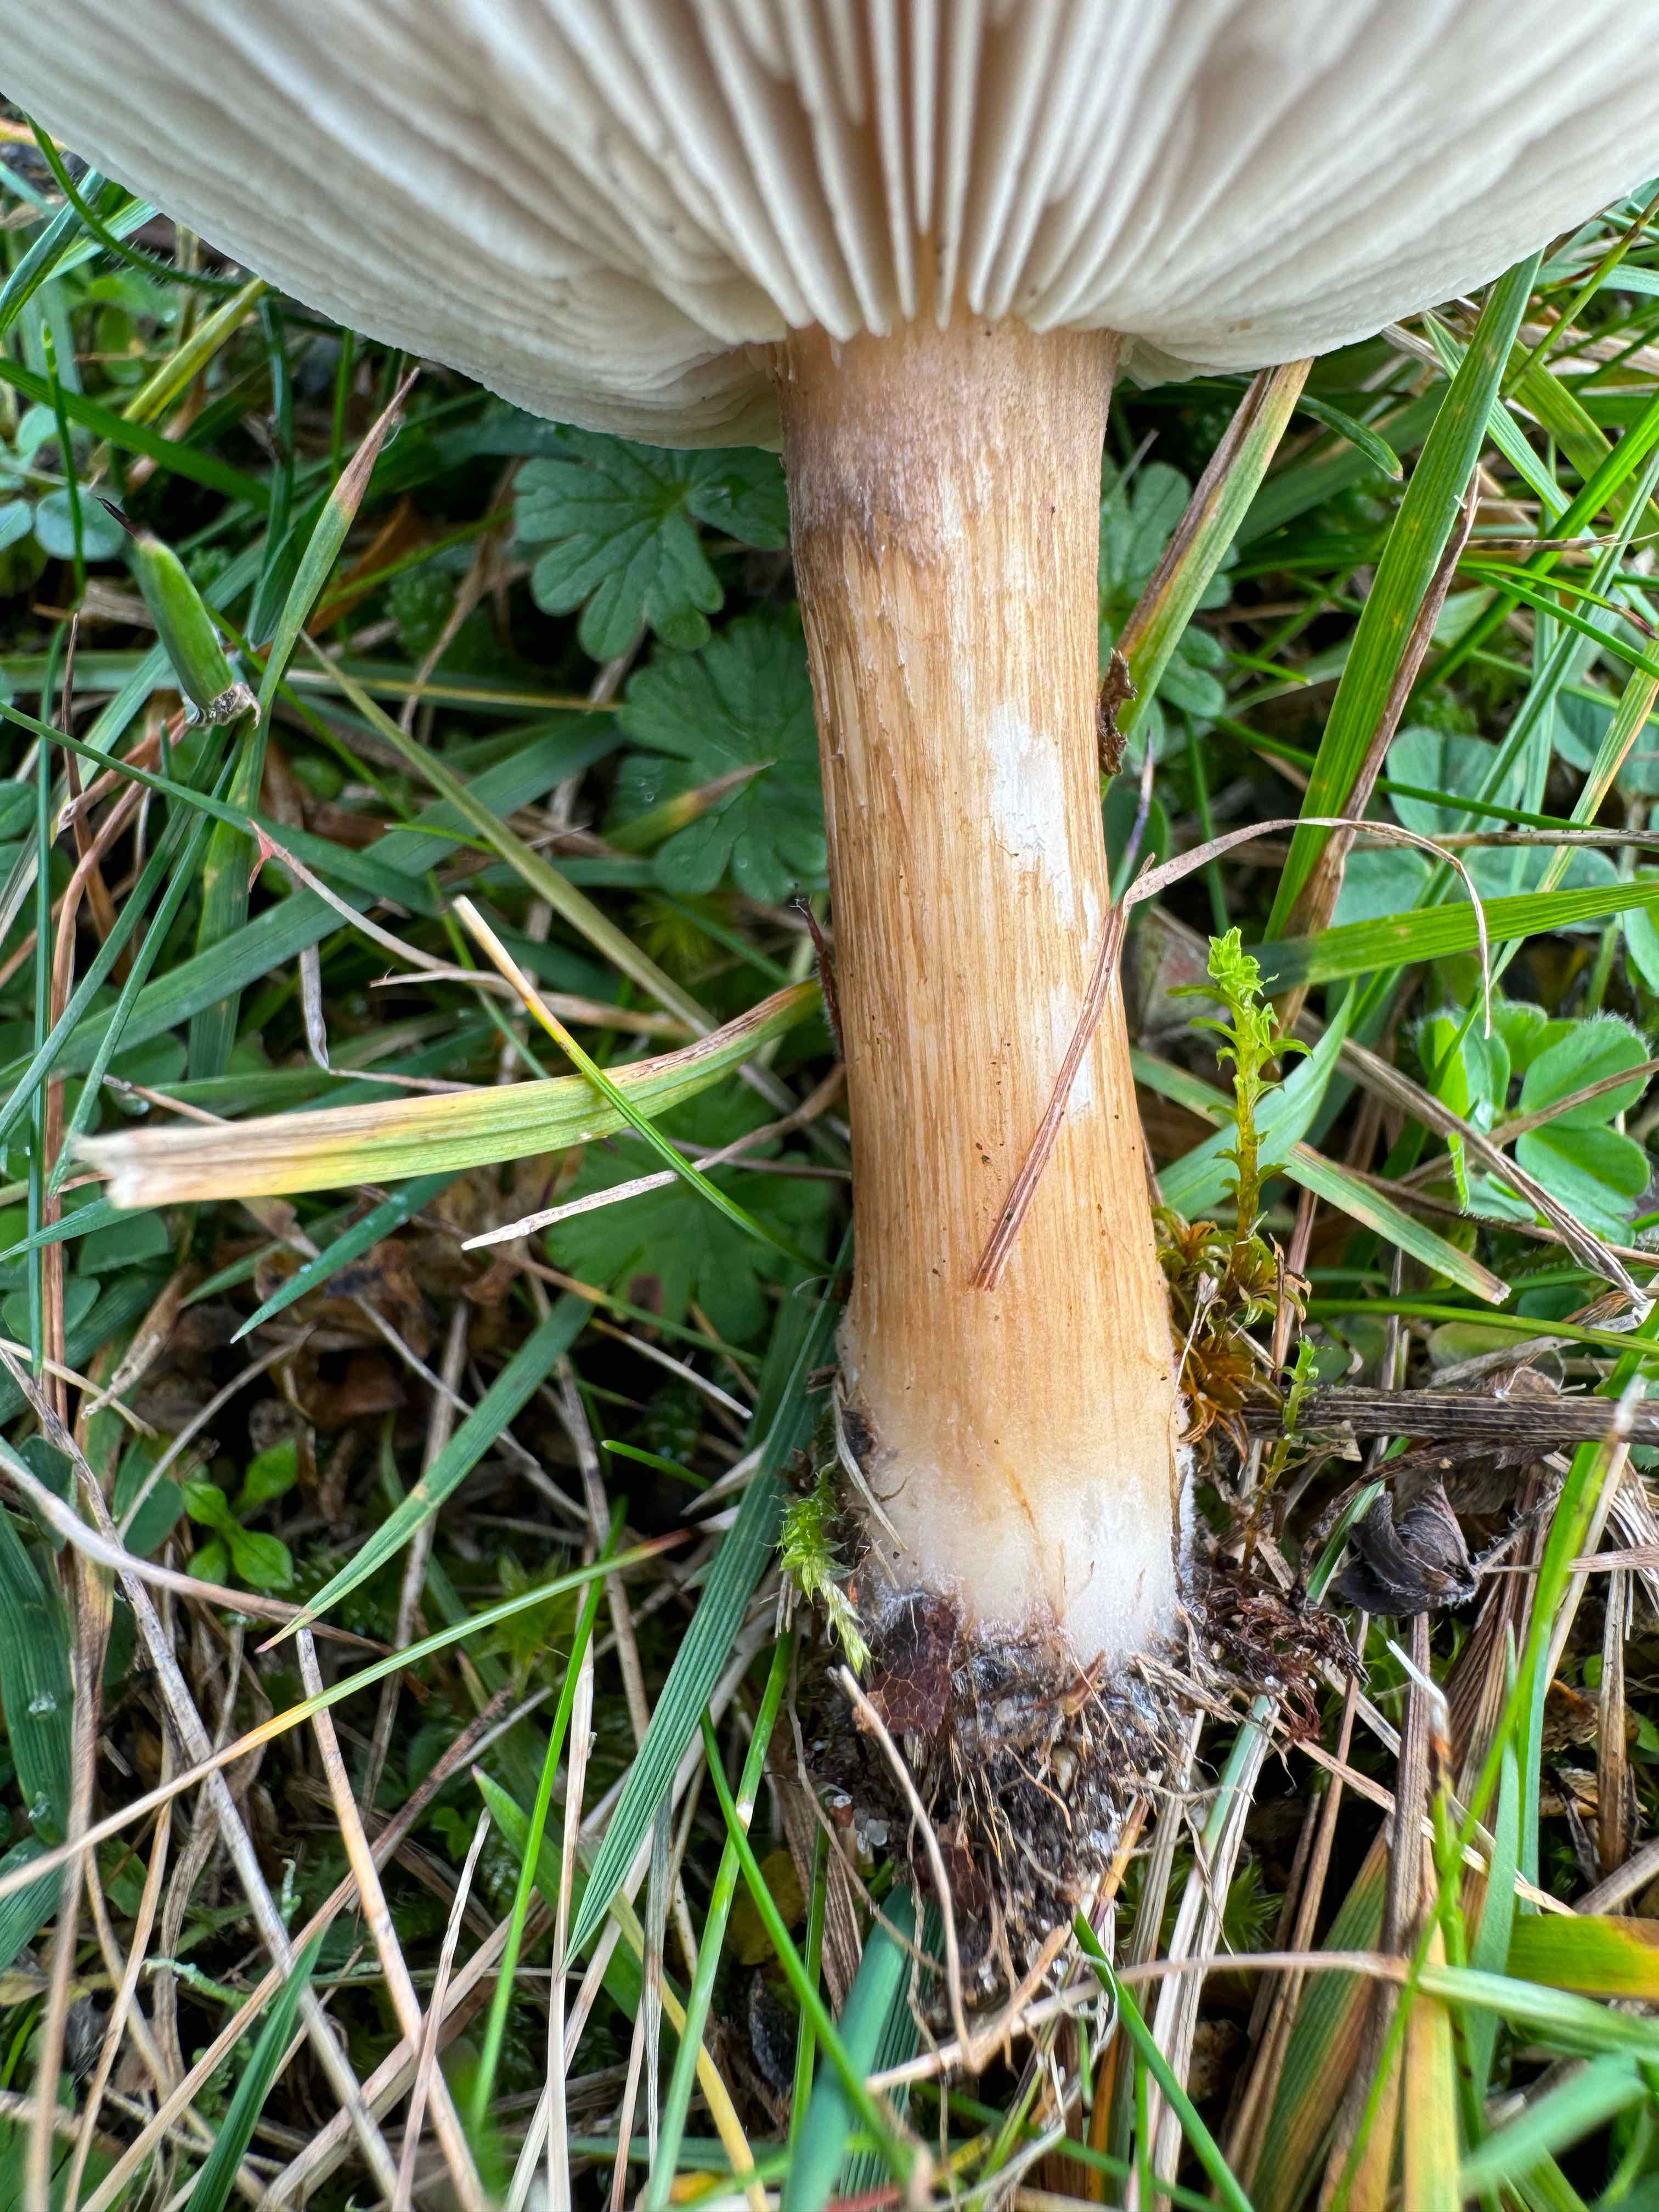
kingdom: Fungi
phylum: Basidiomycota
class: Agaricomycetes
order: Agaricales
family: Tricholomataceae
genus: Melanoleuca
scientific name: Melanoleuca grammopodia
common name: stribestokket munkehat
